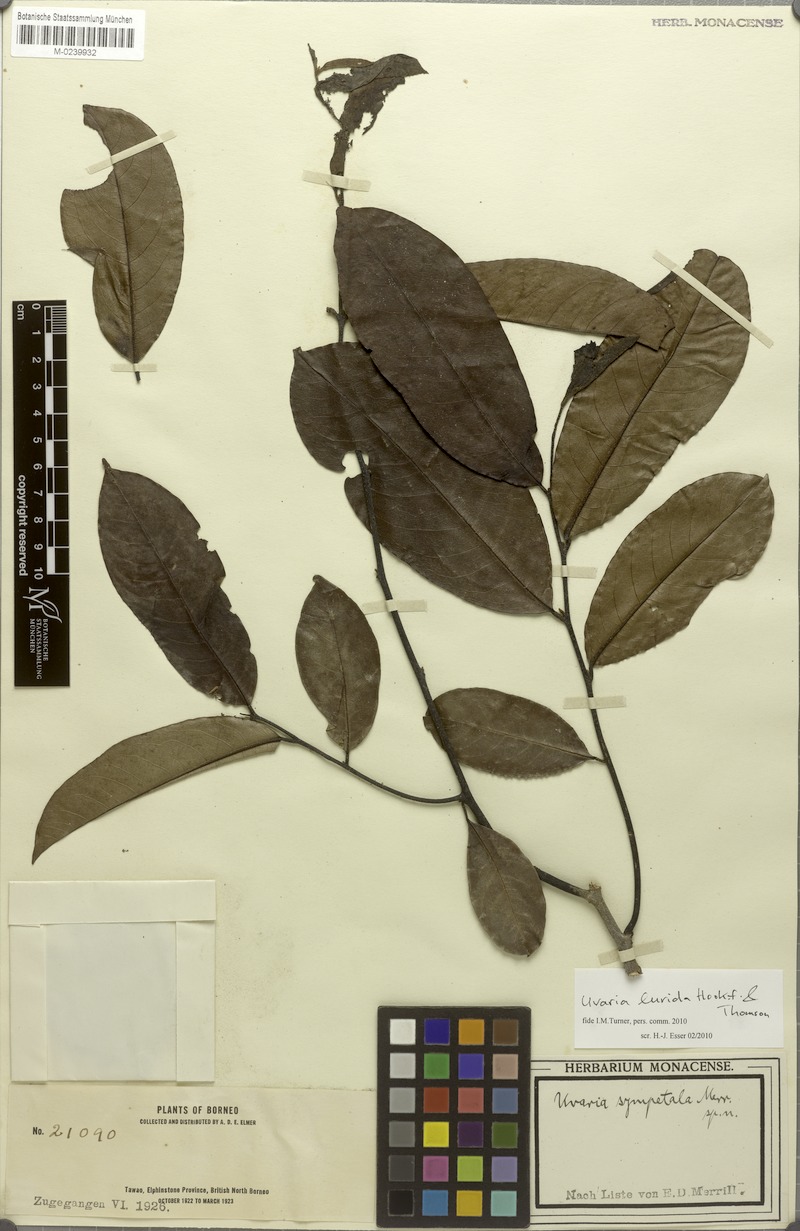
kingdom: Plantae
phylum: Tracheophyta
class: Magnoliopsida
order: Magnoliales
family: Annonaceae
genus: Uvaria
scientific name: Uvaria concava
